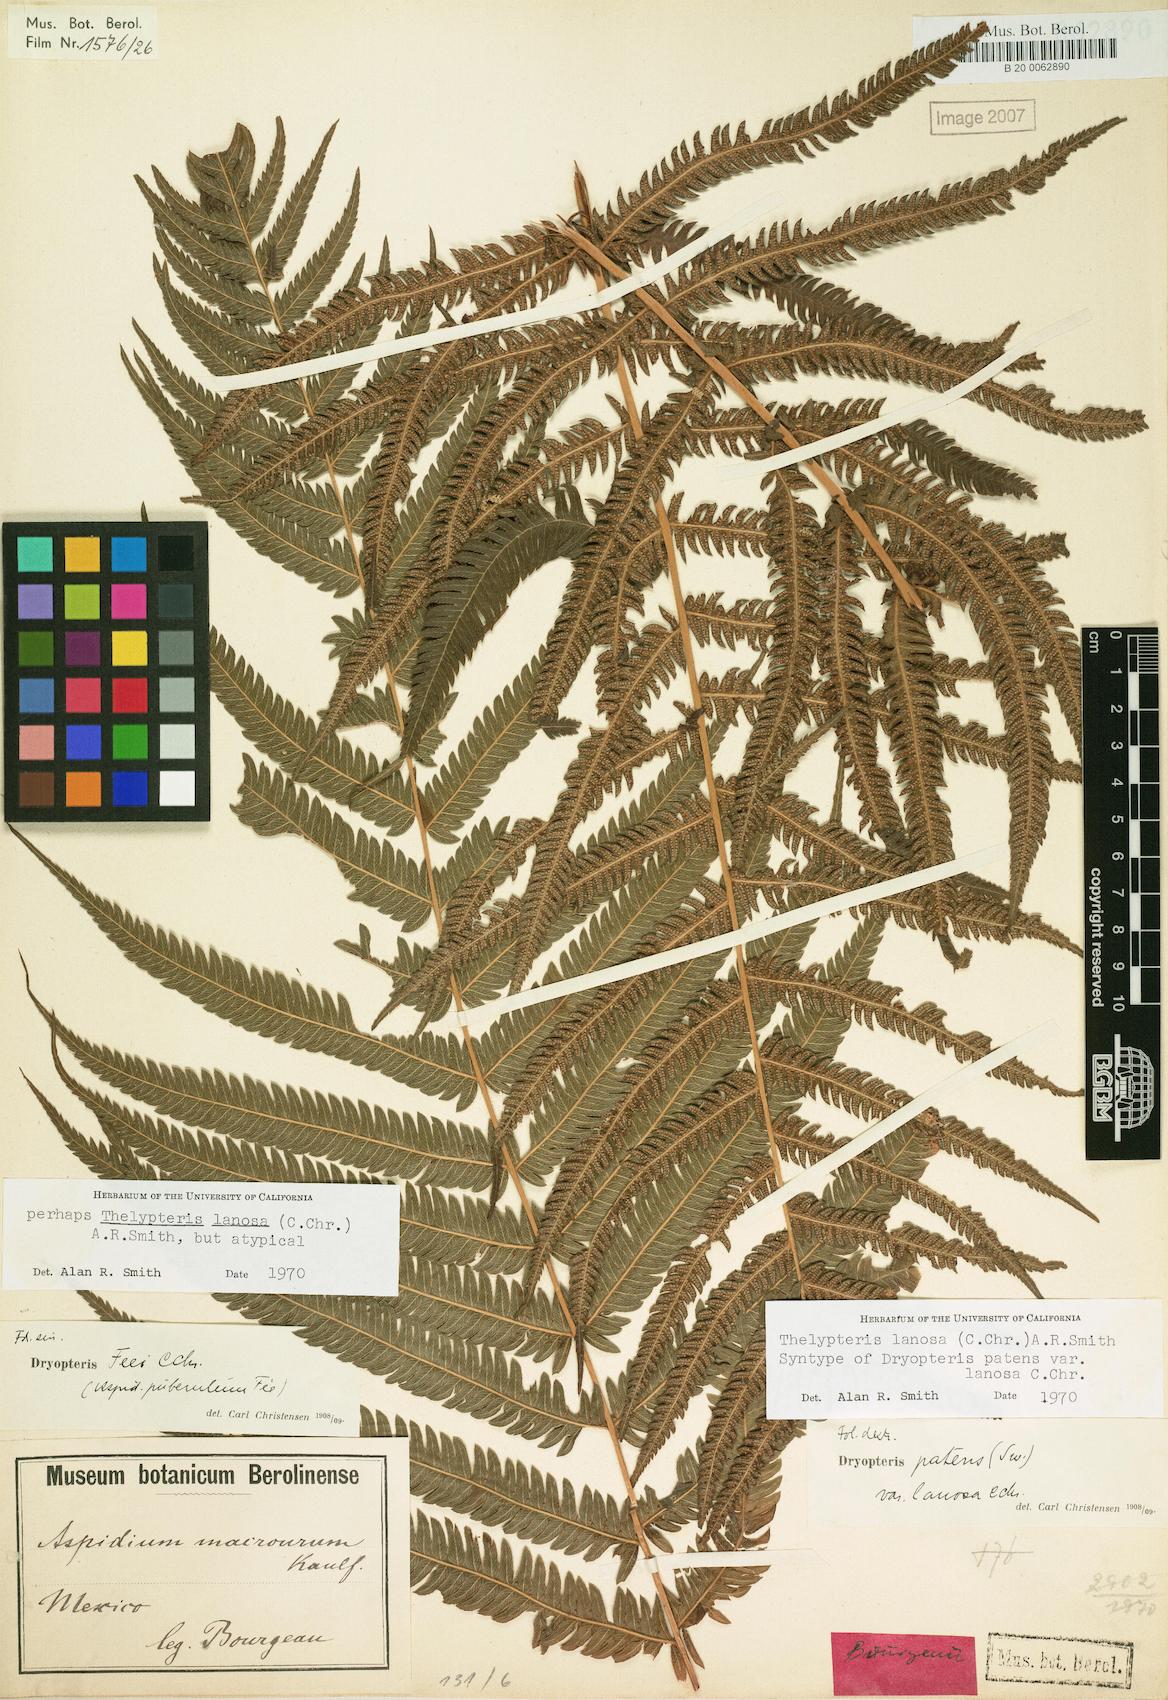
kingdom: Plantae
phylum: Tracheophyta
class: Polypodiopsida
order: Polypodiales
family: Thelypteridaceae
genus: Pelazoneuron
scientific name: Pelazoneuron lanosum
